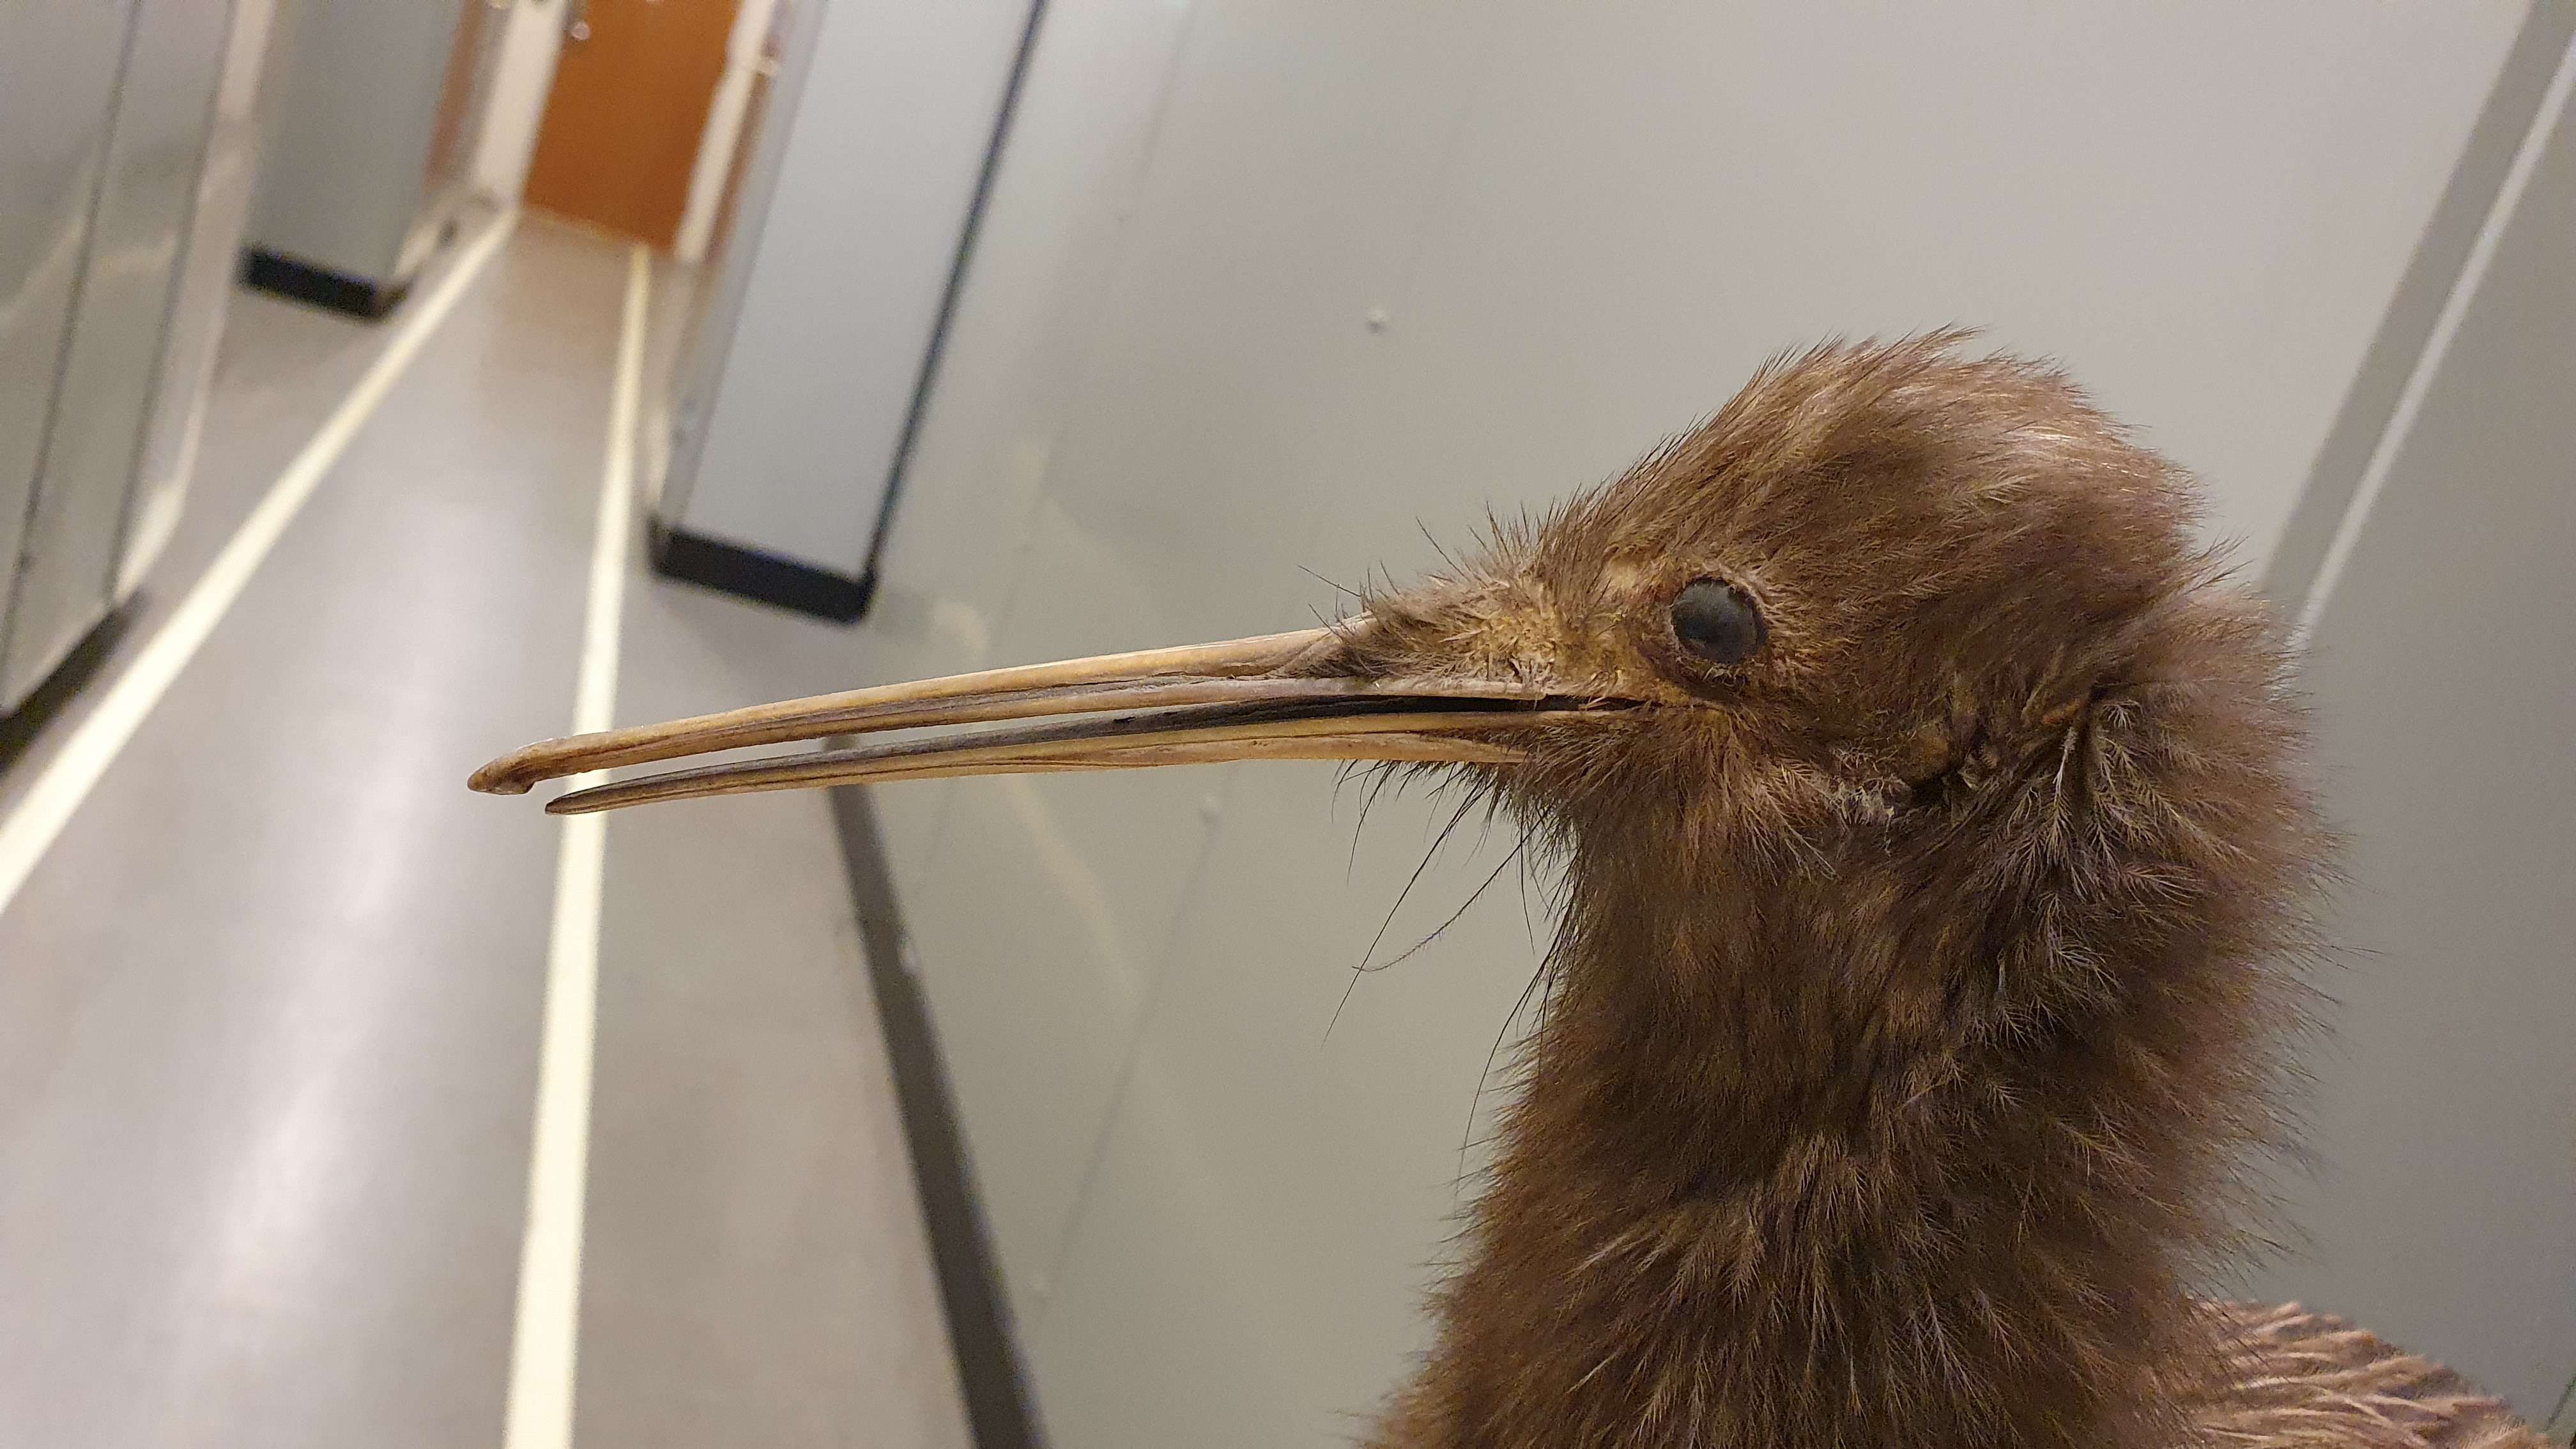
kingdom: Animalia
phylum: Chordata
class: Aves
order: Apterygiformes
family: Apterygidae
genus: Apteryx
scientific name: Apteryx mantelli
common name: North island brown kiwi
